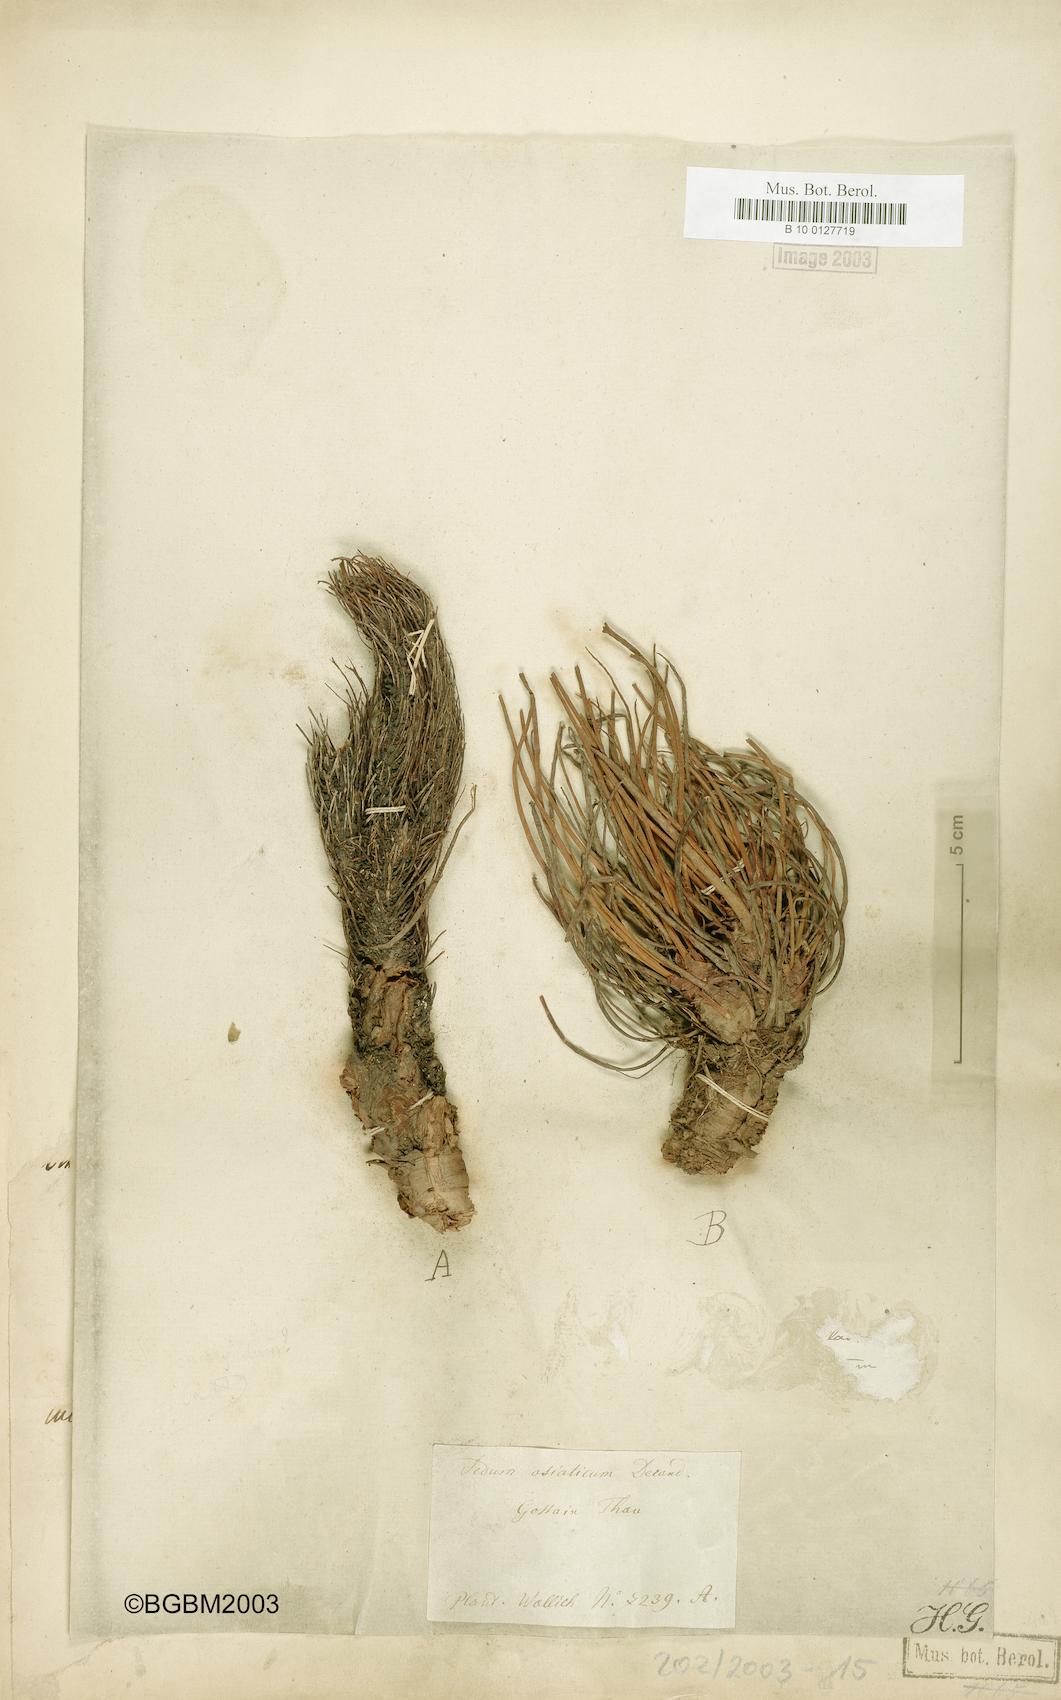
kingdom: Plantae
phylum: Tracheophyta
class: Magnoliopsida
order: Saxifragales
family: Crassulaceae
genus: Rhodiola
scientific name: Rhodiola wallichiana
